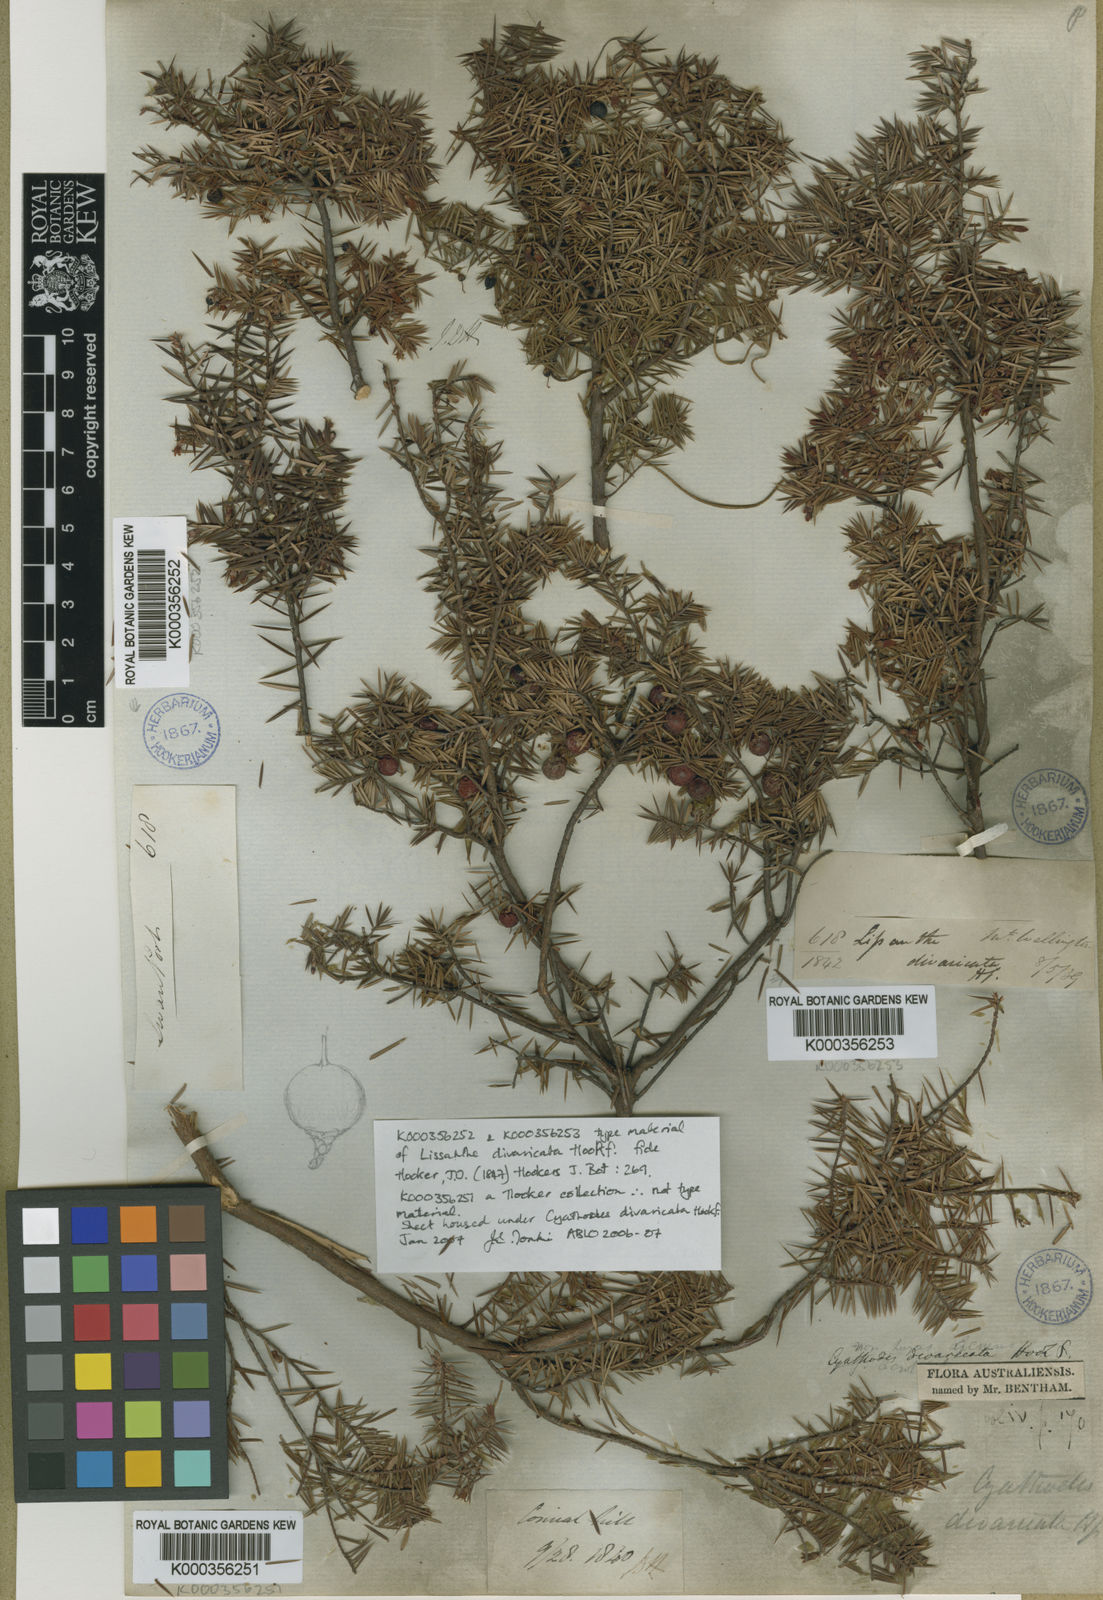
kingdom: Plantae
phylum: Tracheophyta
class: Magnoliopsida
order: Ericales
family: Ericaceae
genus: Leptecophylla
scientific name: Leptecophylla divaricata
